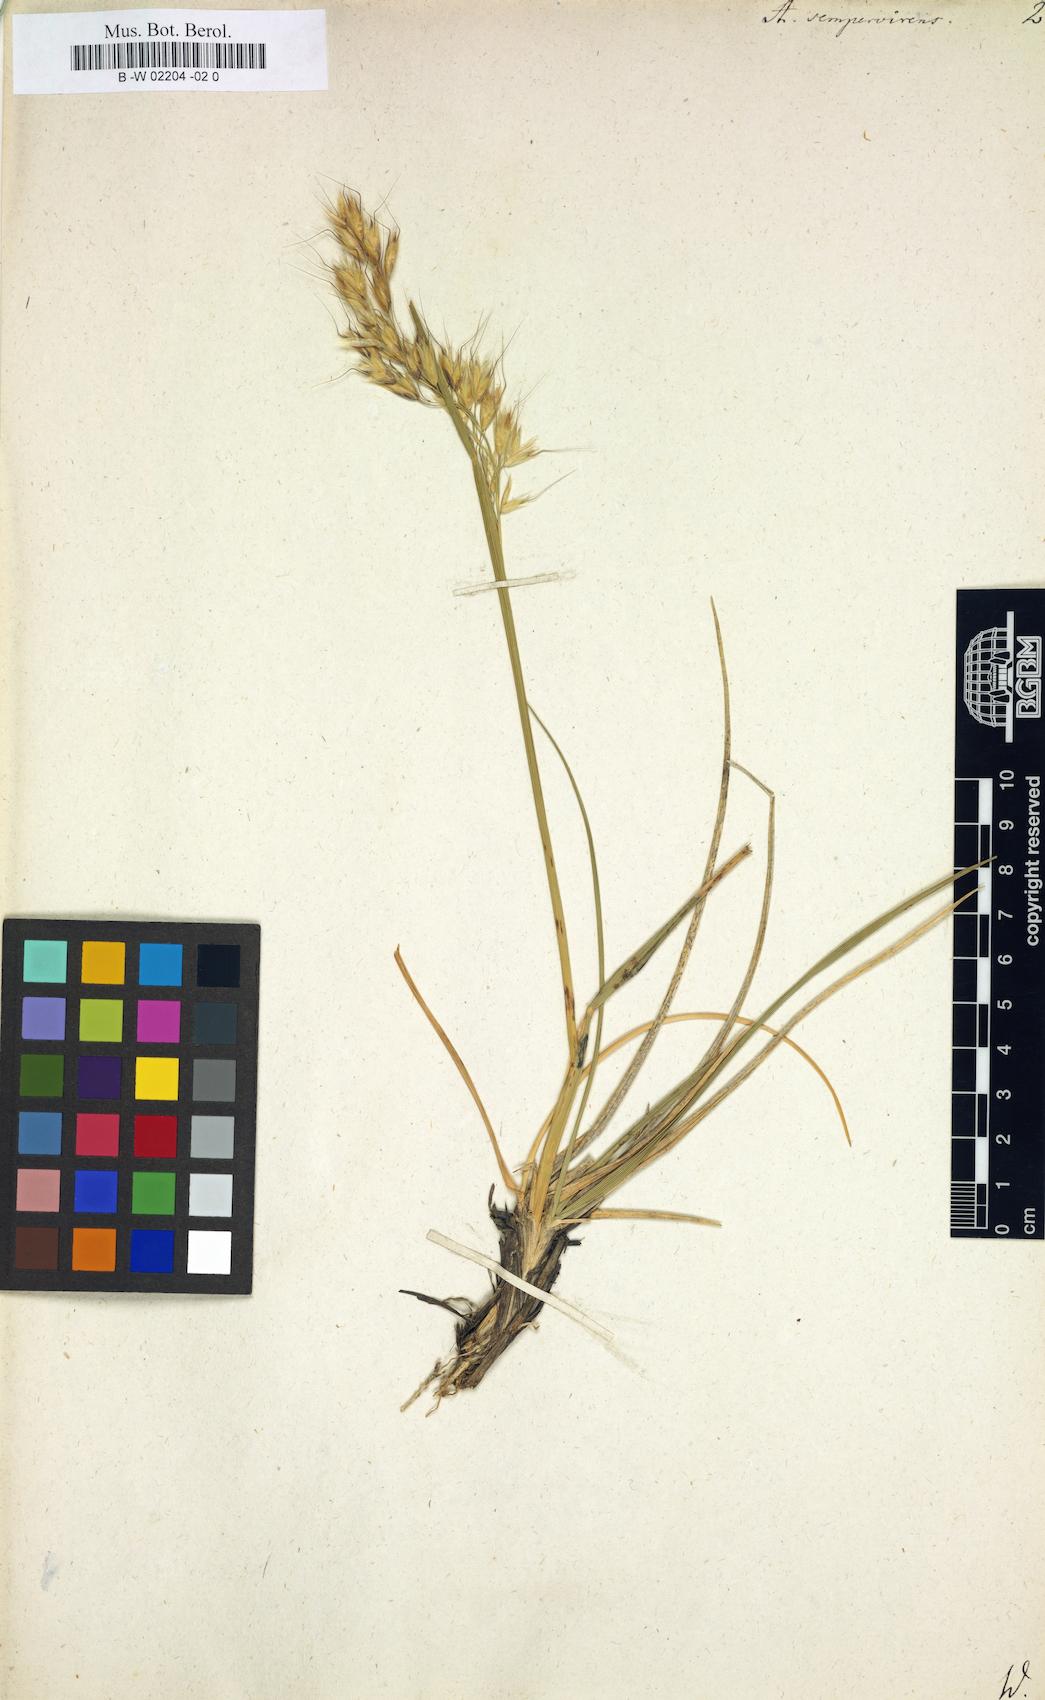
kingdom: Plantae
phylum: Tracheophyta
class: Liliopsida
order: Poales
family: Poaceae
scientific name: Poaceae
